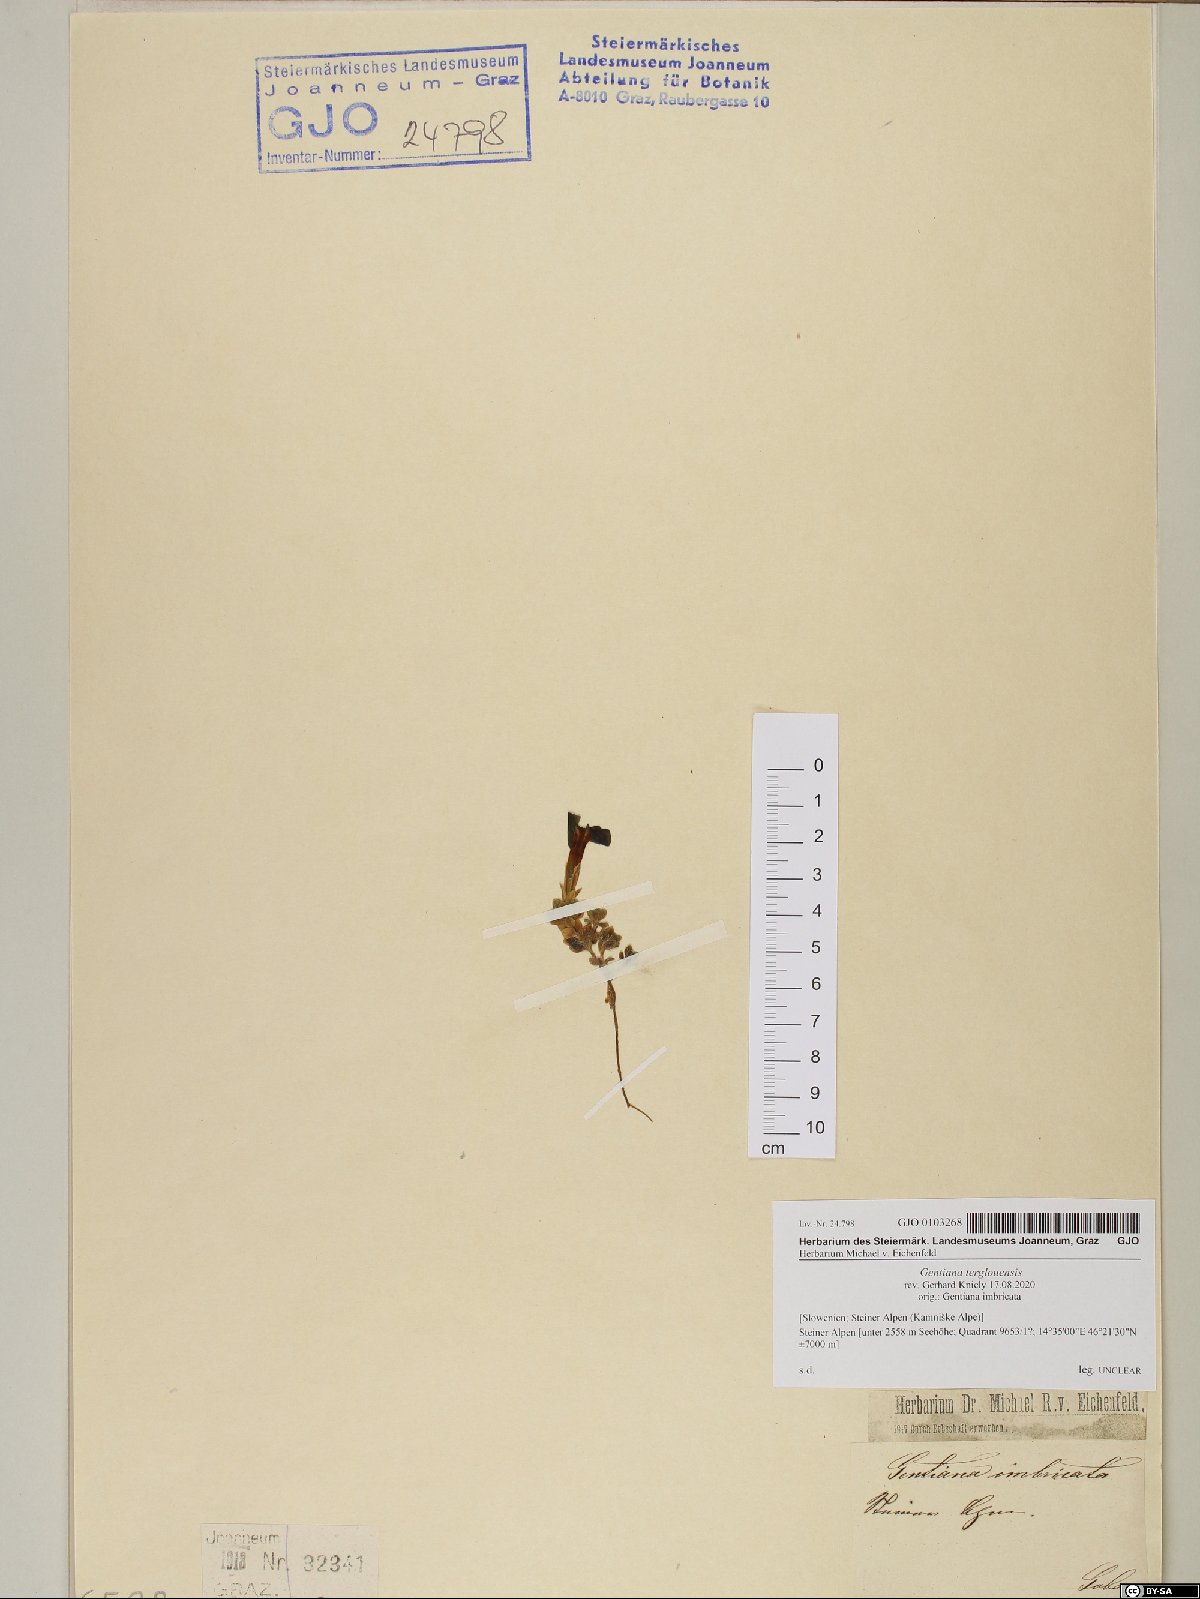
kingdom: Plantae
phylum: Tracheophyta
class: Magnoliopsida
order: Gentianales
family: Gentianaceae
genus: Gentiana
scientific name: Gentiana terglouensis
